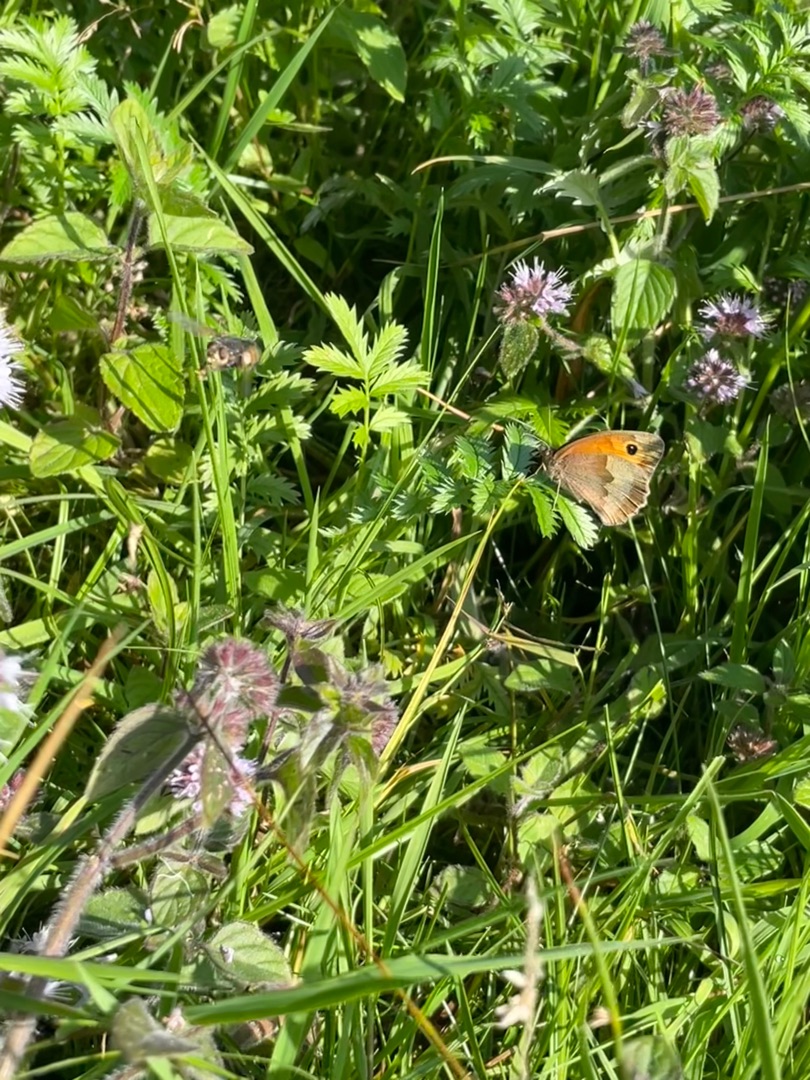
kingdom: Animalia
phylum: Arthropoda
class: Insecta
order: Lepidoptera
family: Nymphalidae
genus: Maniola
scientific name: Maniola jurtina
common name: Græsrandøje
